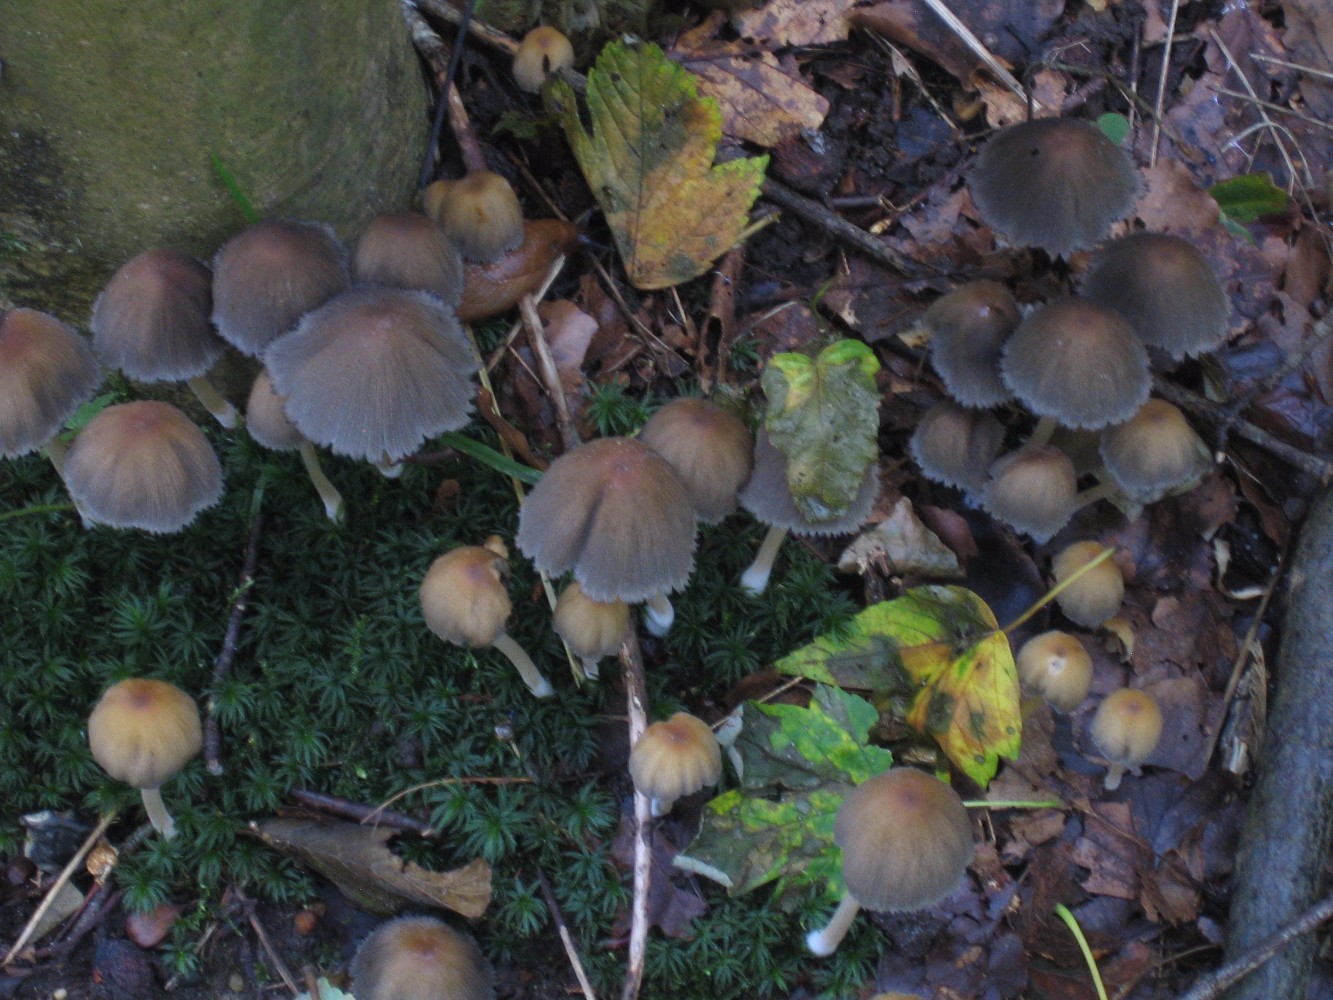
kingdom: Fungi
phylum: Basidiomycota
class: Agaricomycetes
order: Agaricales
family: Psathyrellaceae
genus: Coprinellus
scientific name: Coprinellus micaceus
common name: glimmer-blækhat
